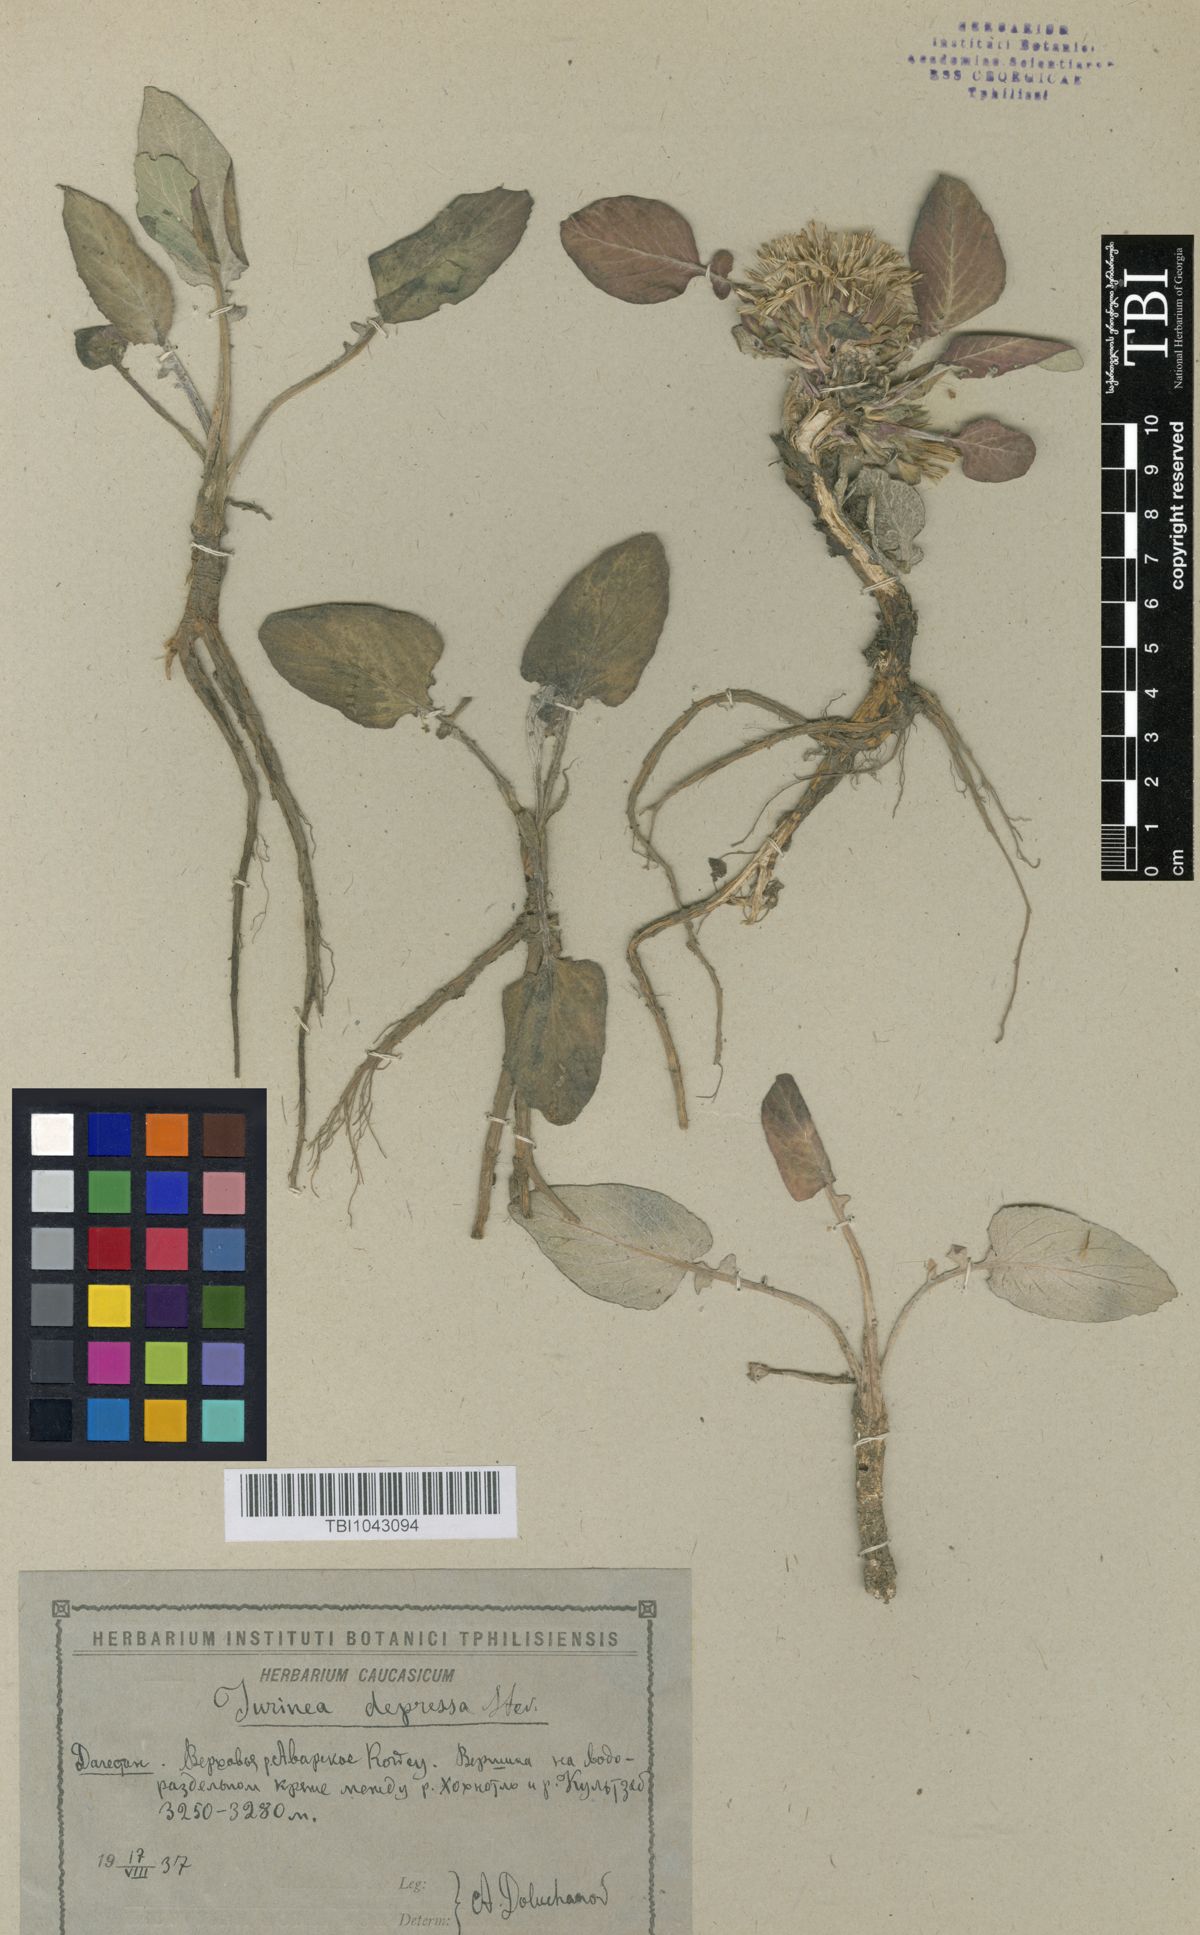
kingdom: Plantae
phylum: Tracheophyta
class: Magnoliopsida
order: Asterales
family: Asteraceae
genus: Jurinea
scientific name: Jurinea moschus
